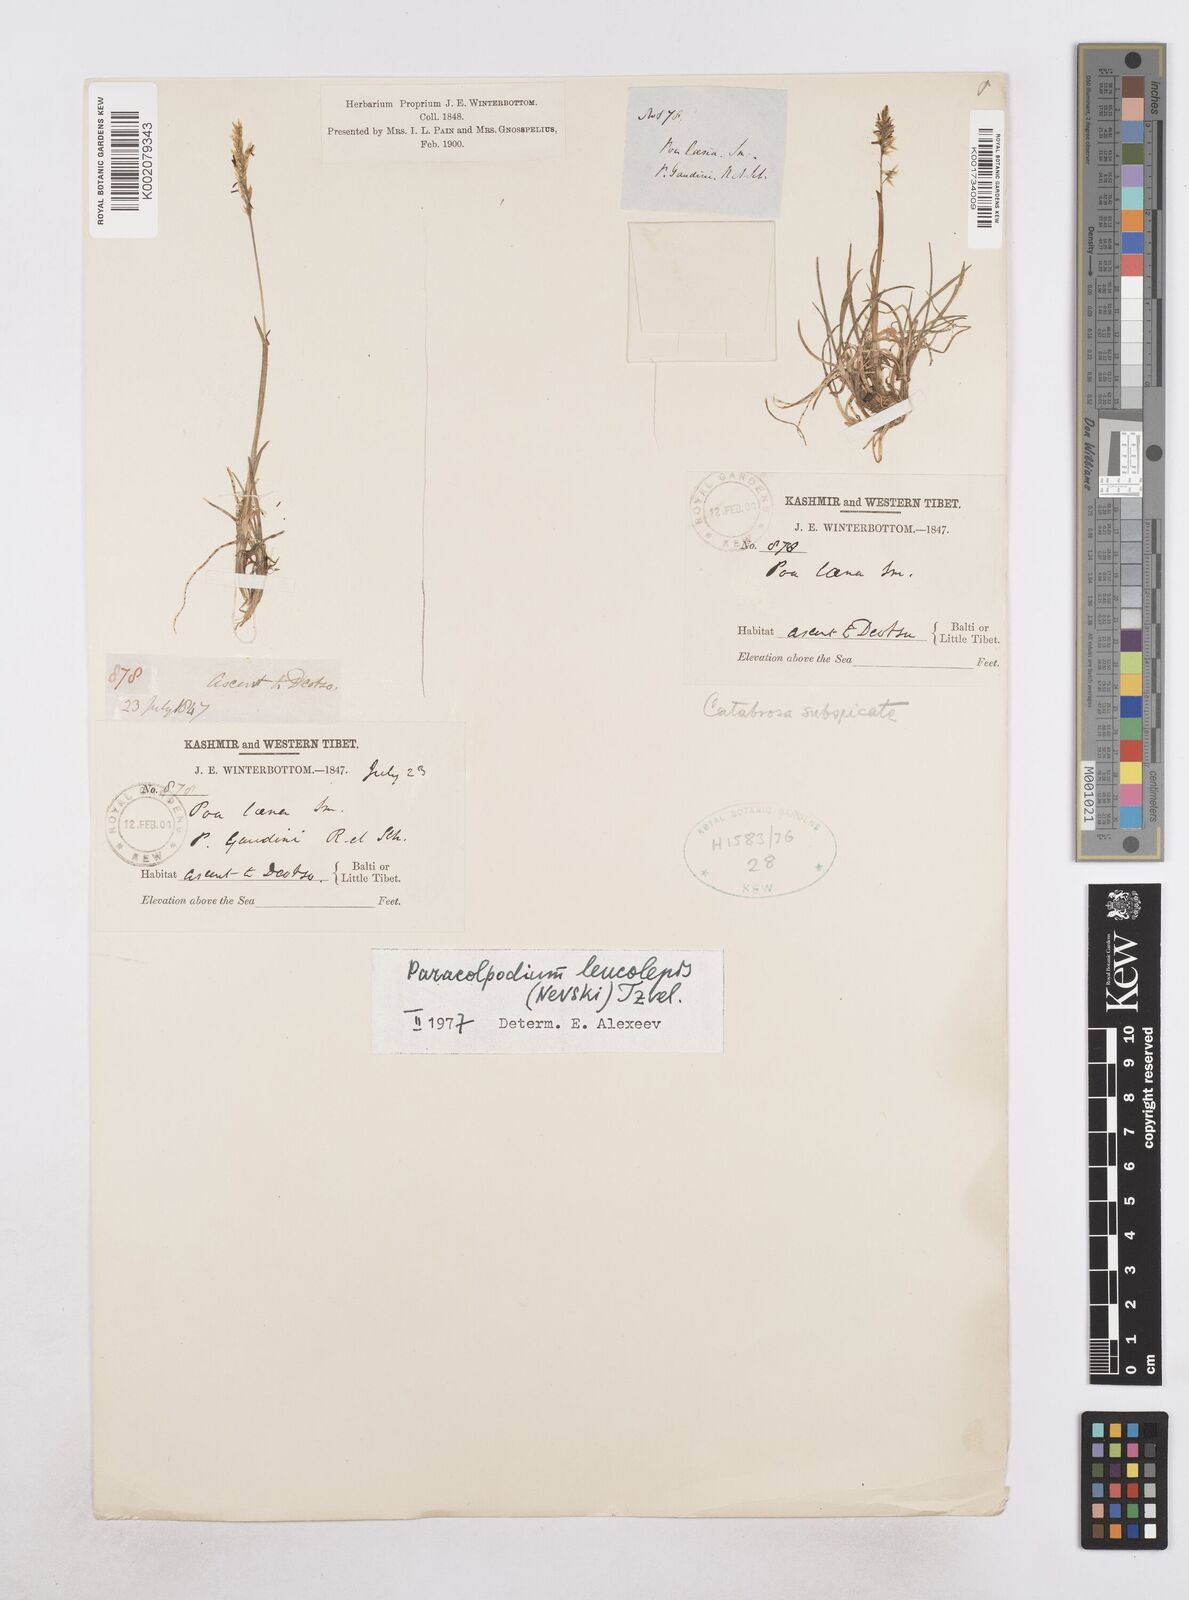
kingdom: Plantae
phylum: Tracheophyta
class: Liliopsida
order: Poales
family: Poaceae
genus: Paracolpodium
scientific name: Paracolpodium altaicum
